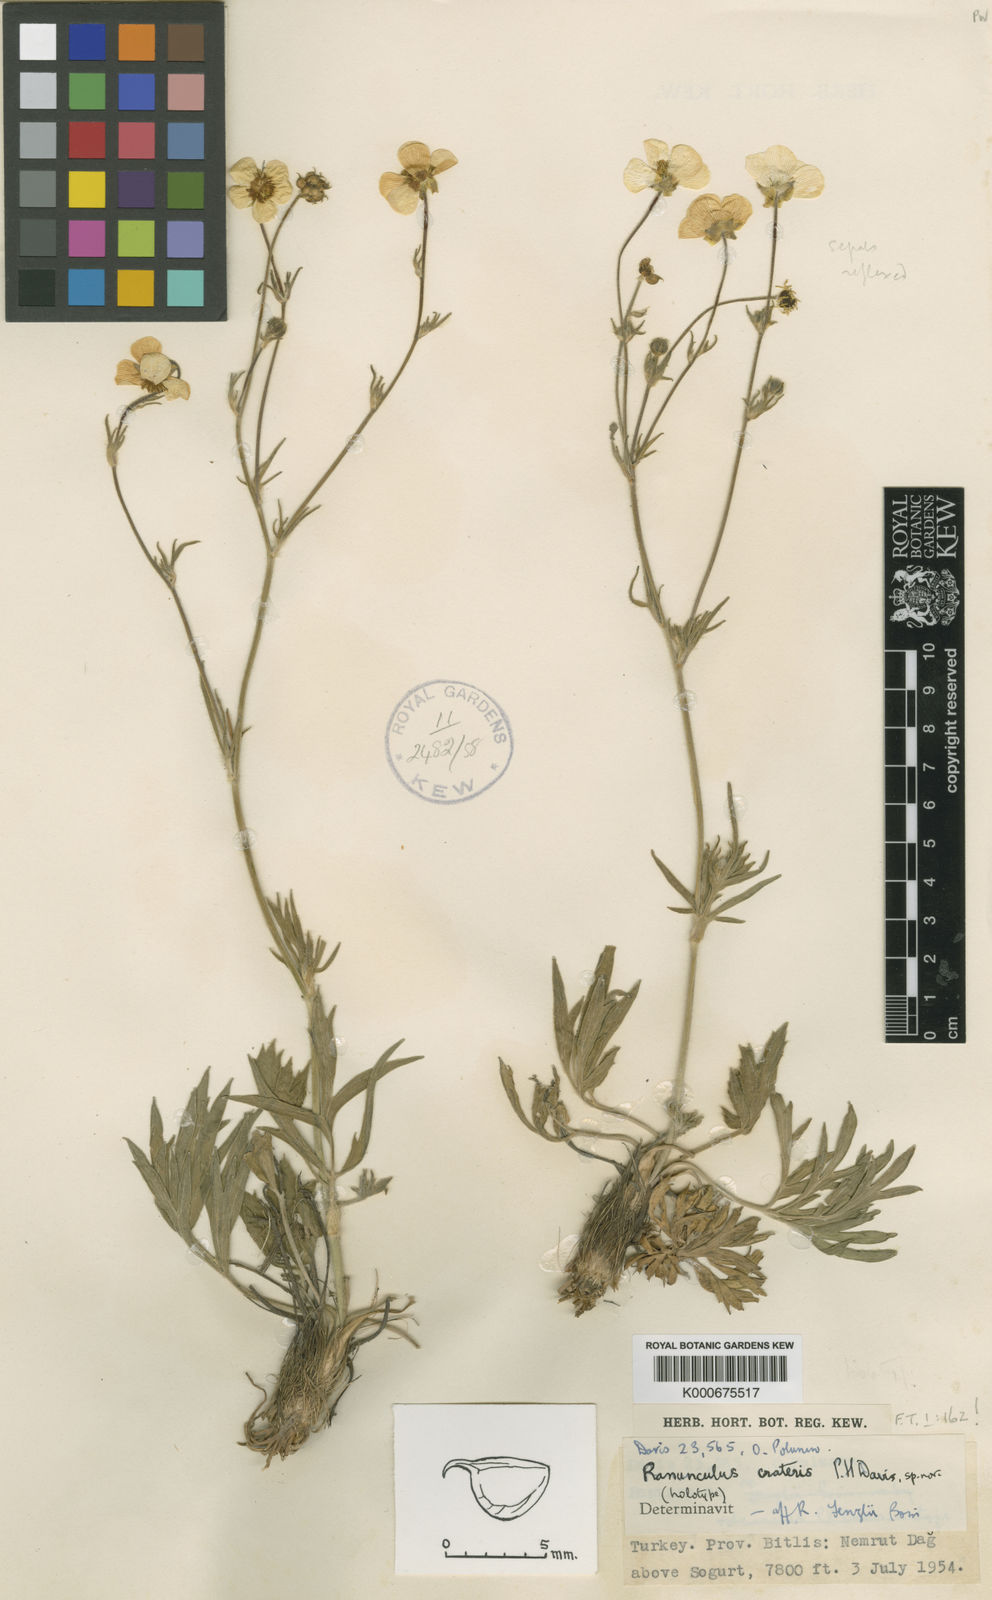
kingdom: Plantae
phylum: Tracheophyta
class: Magnoliopsida
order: Ranunculales
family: Ranunculaceae
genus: Ranunculus
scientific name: Ranunculus crateris
